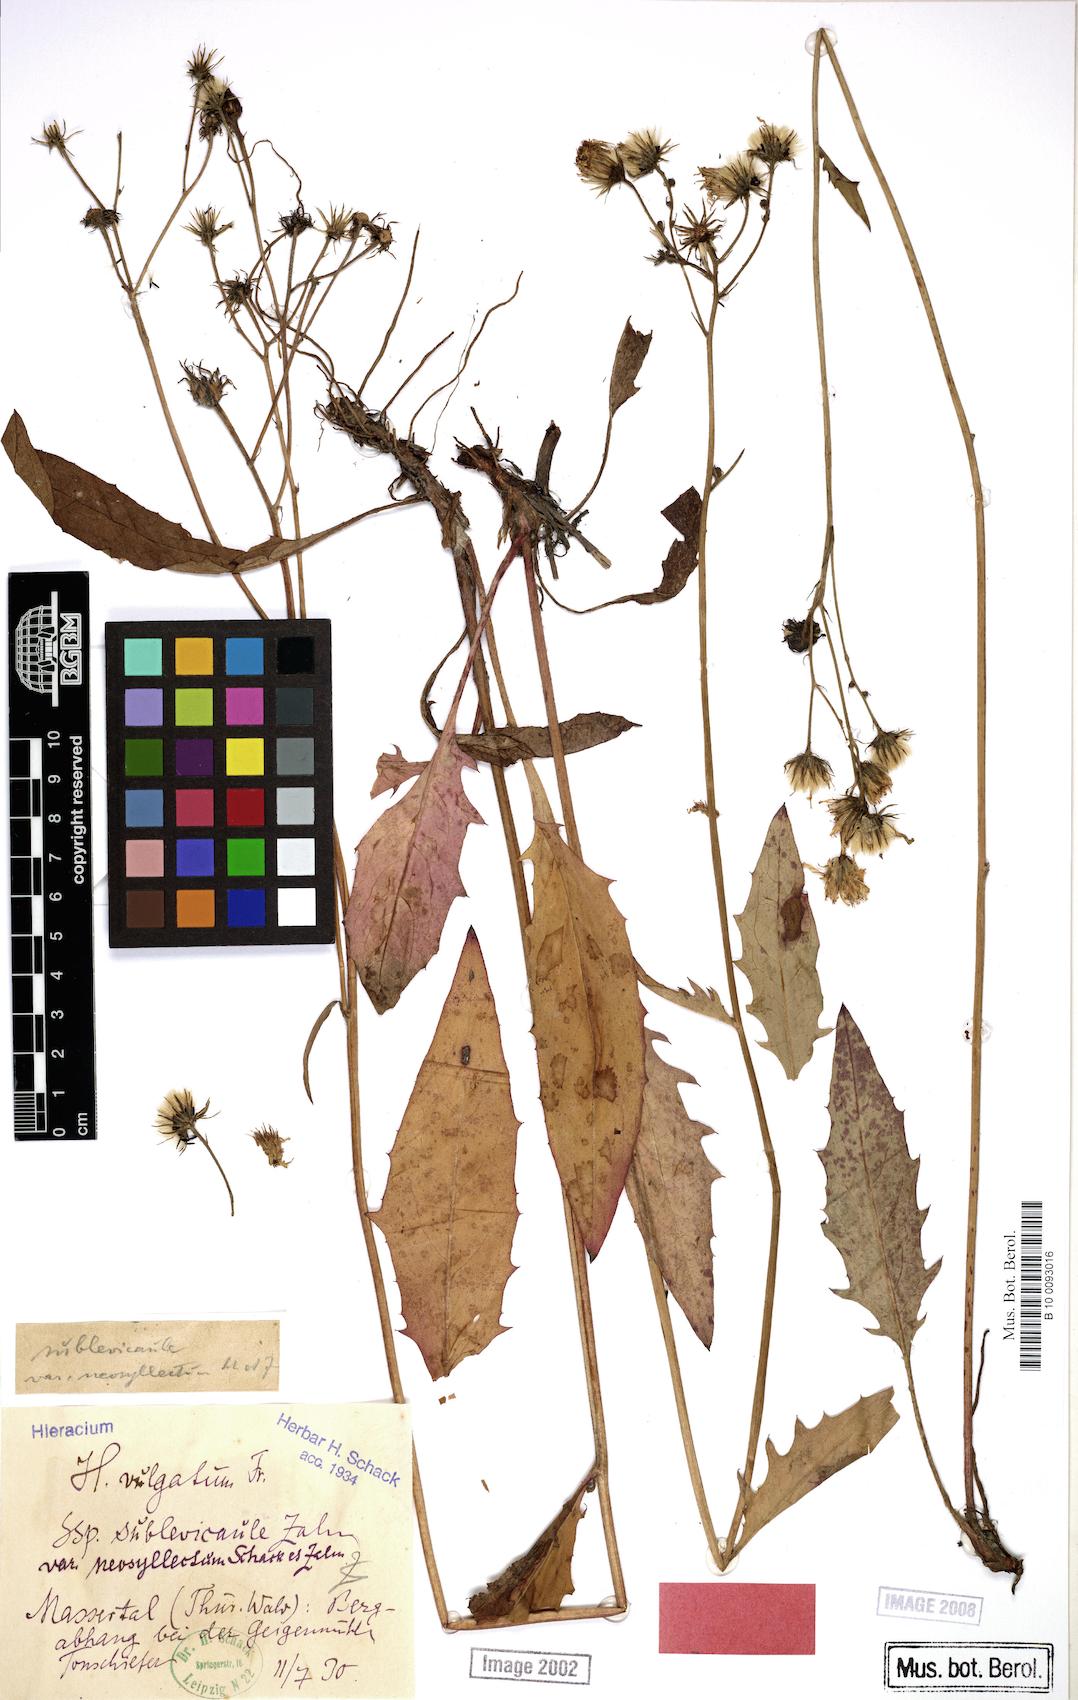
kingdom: Plantae
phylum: Tracheophyta
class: Magnoliopsida
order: Asterales
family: Asteraceae
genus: Hieracium
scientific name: Hieracium lachenalii
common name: Common hawkweed
